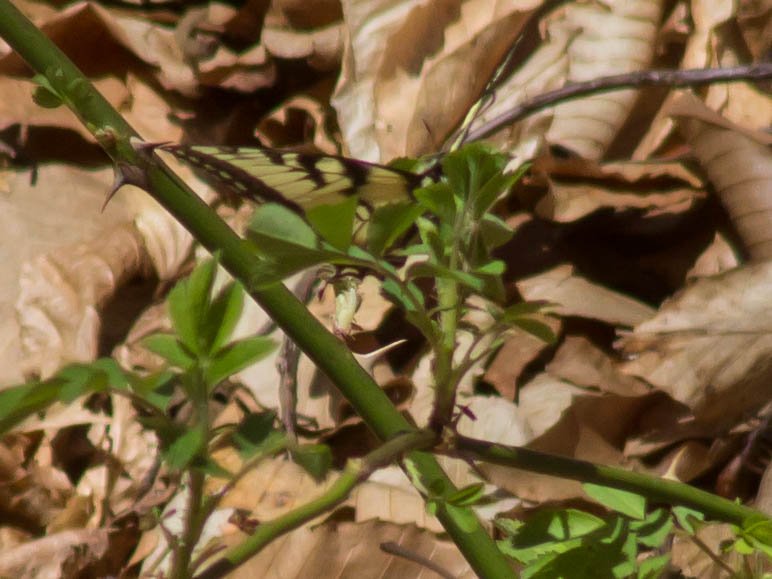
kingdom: Animalia
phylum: Arthropoda
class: Insecta
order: Lepidoptera
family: Papilionidae
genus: Pterourus
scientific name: Pterourus glaucus
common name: Eastern Tiger Swallowtail
